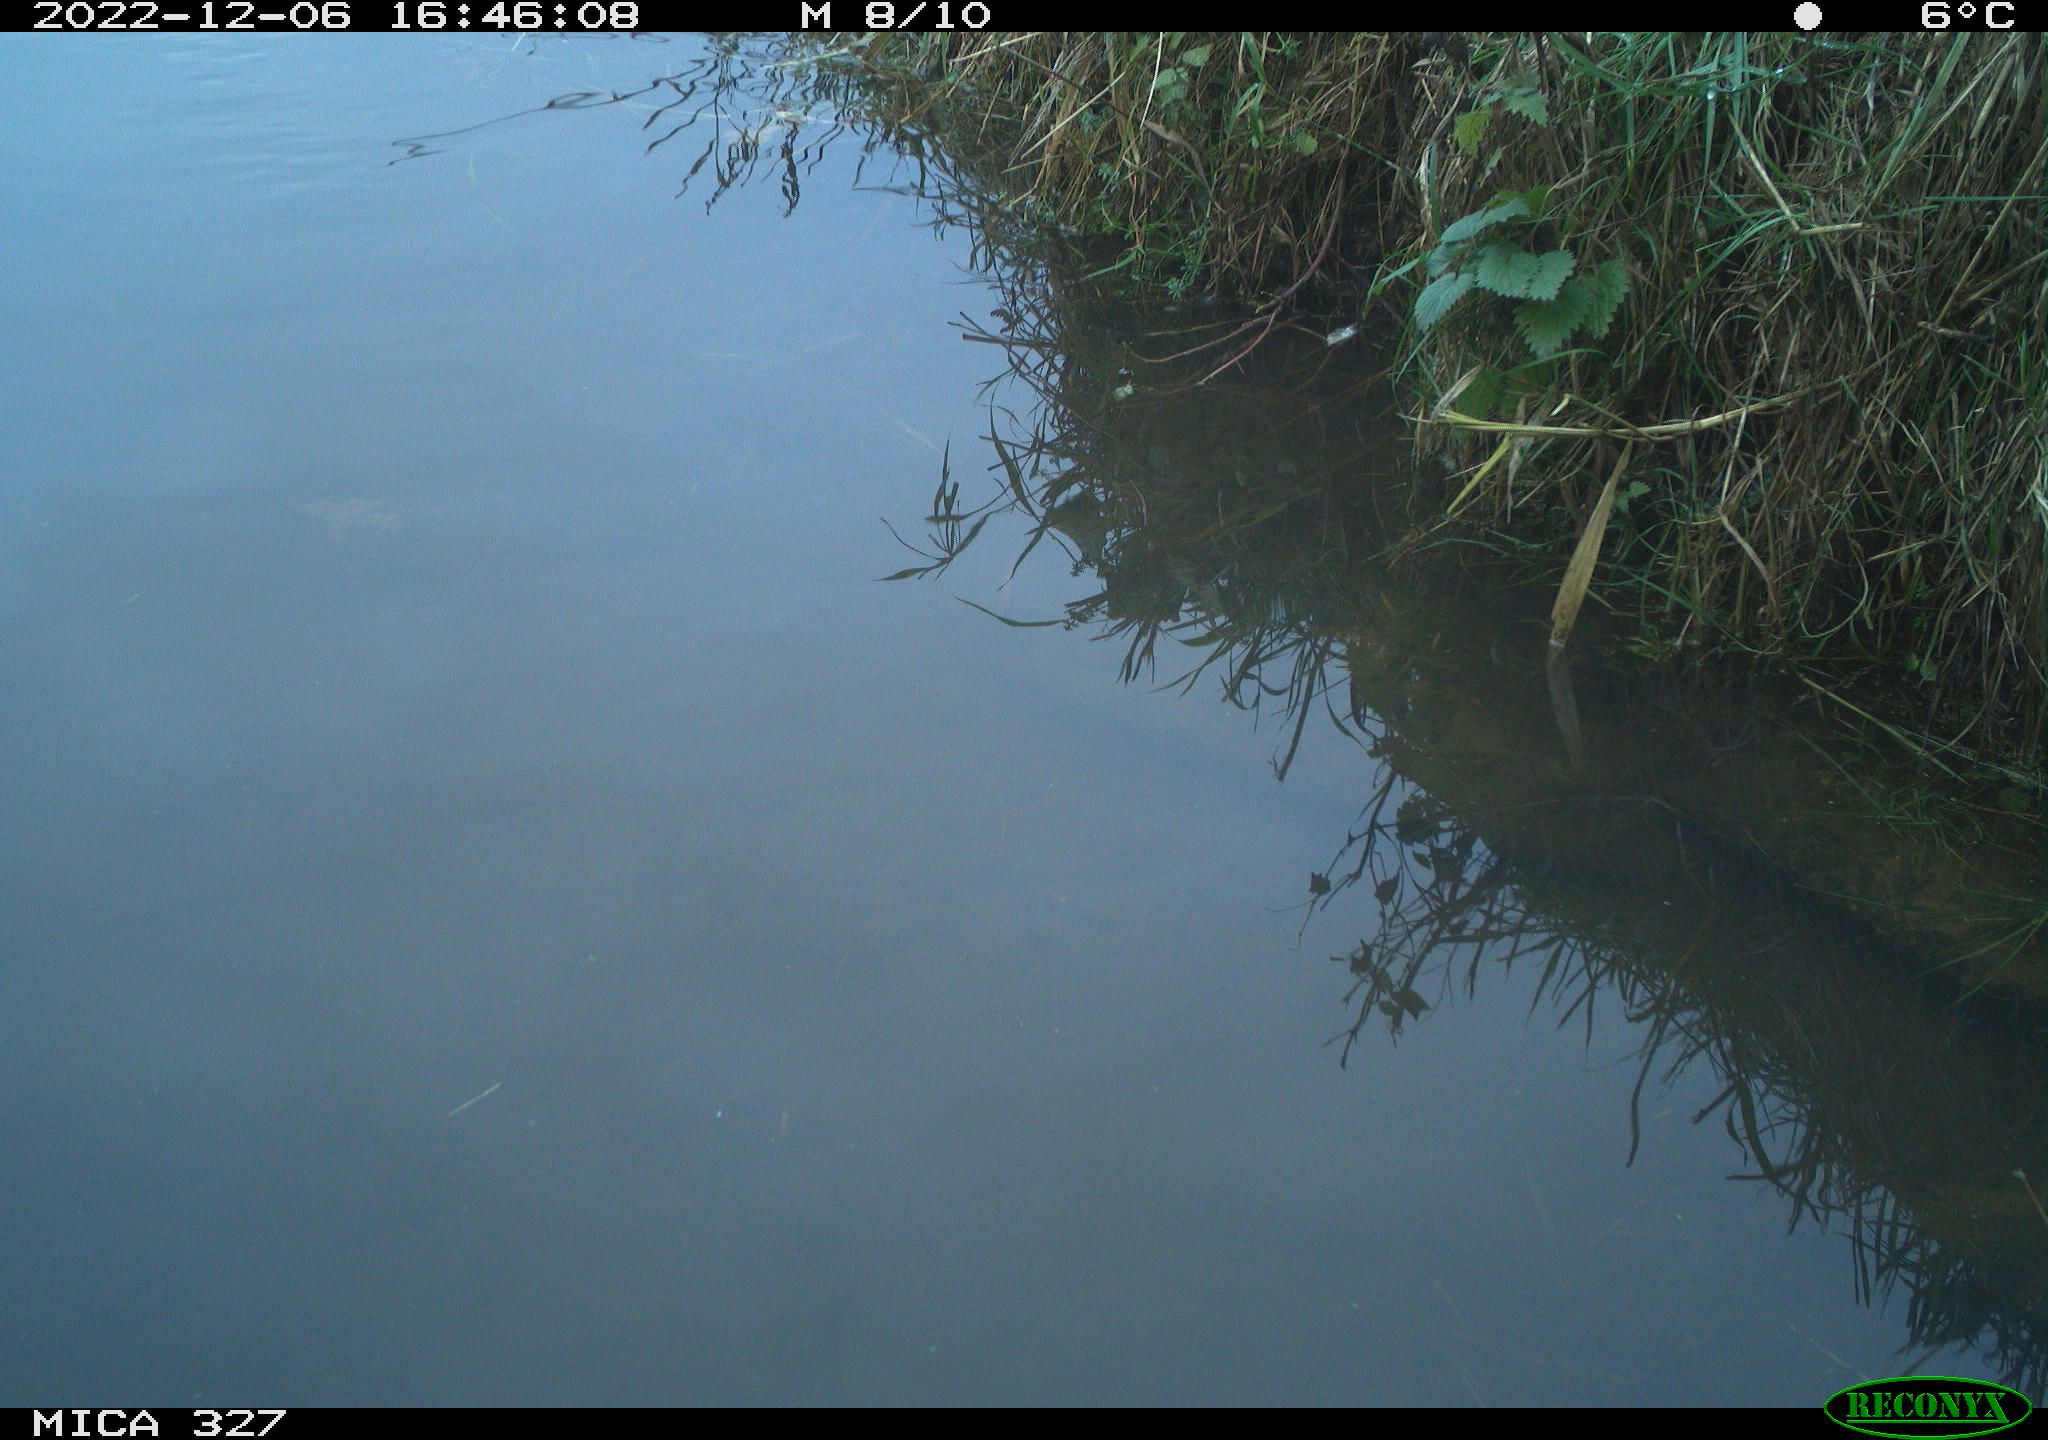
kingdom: Animalia
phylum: Chordata
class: Aves
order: Gruiformes
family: Rallidae
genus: Gallinula
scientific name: Gallinula chloropus
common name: Common moorhen
